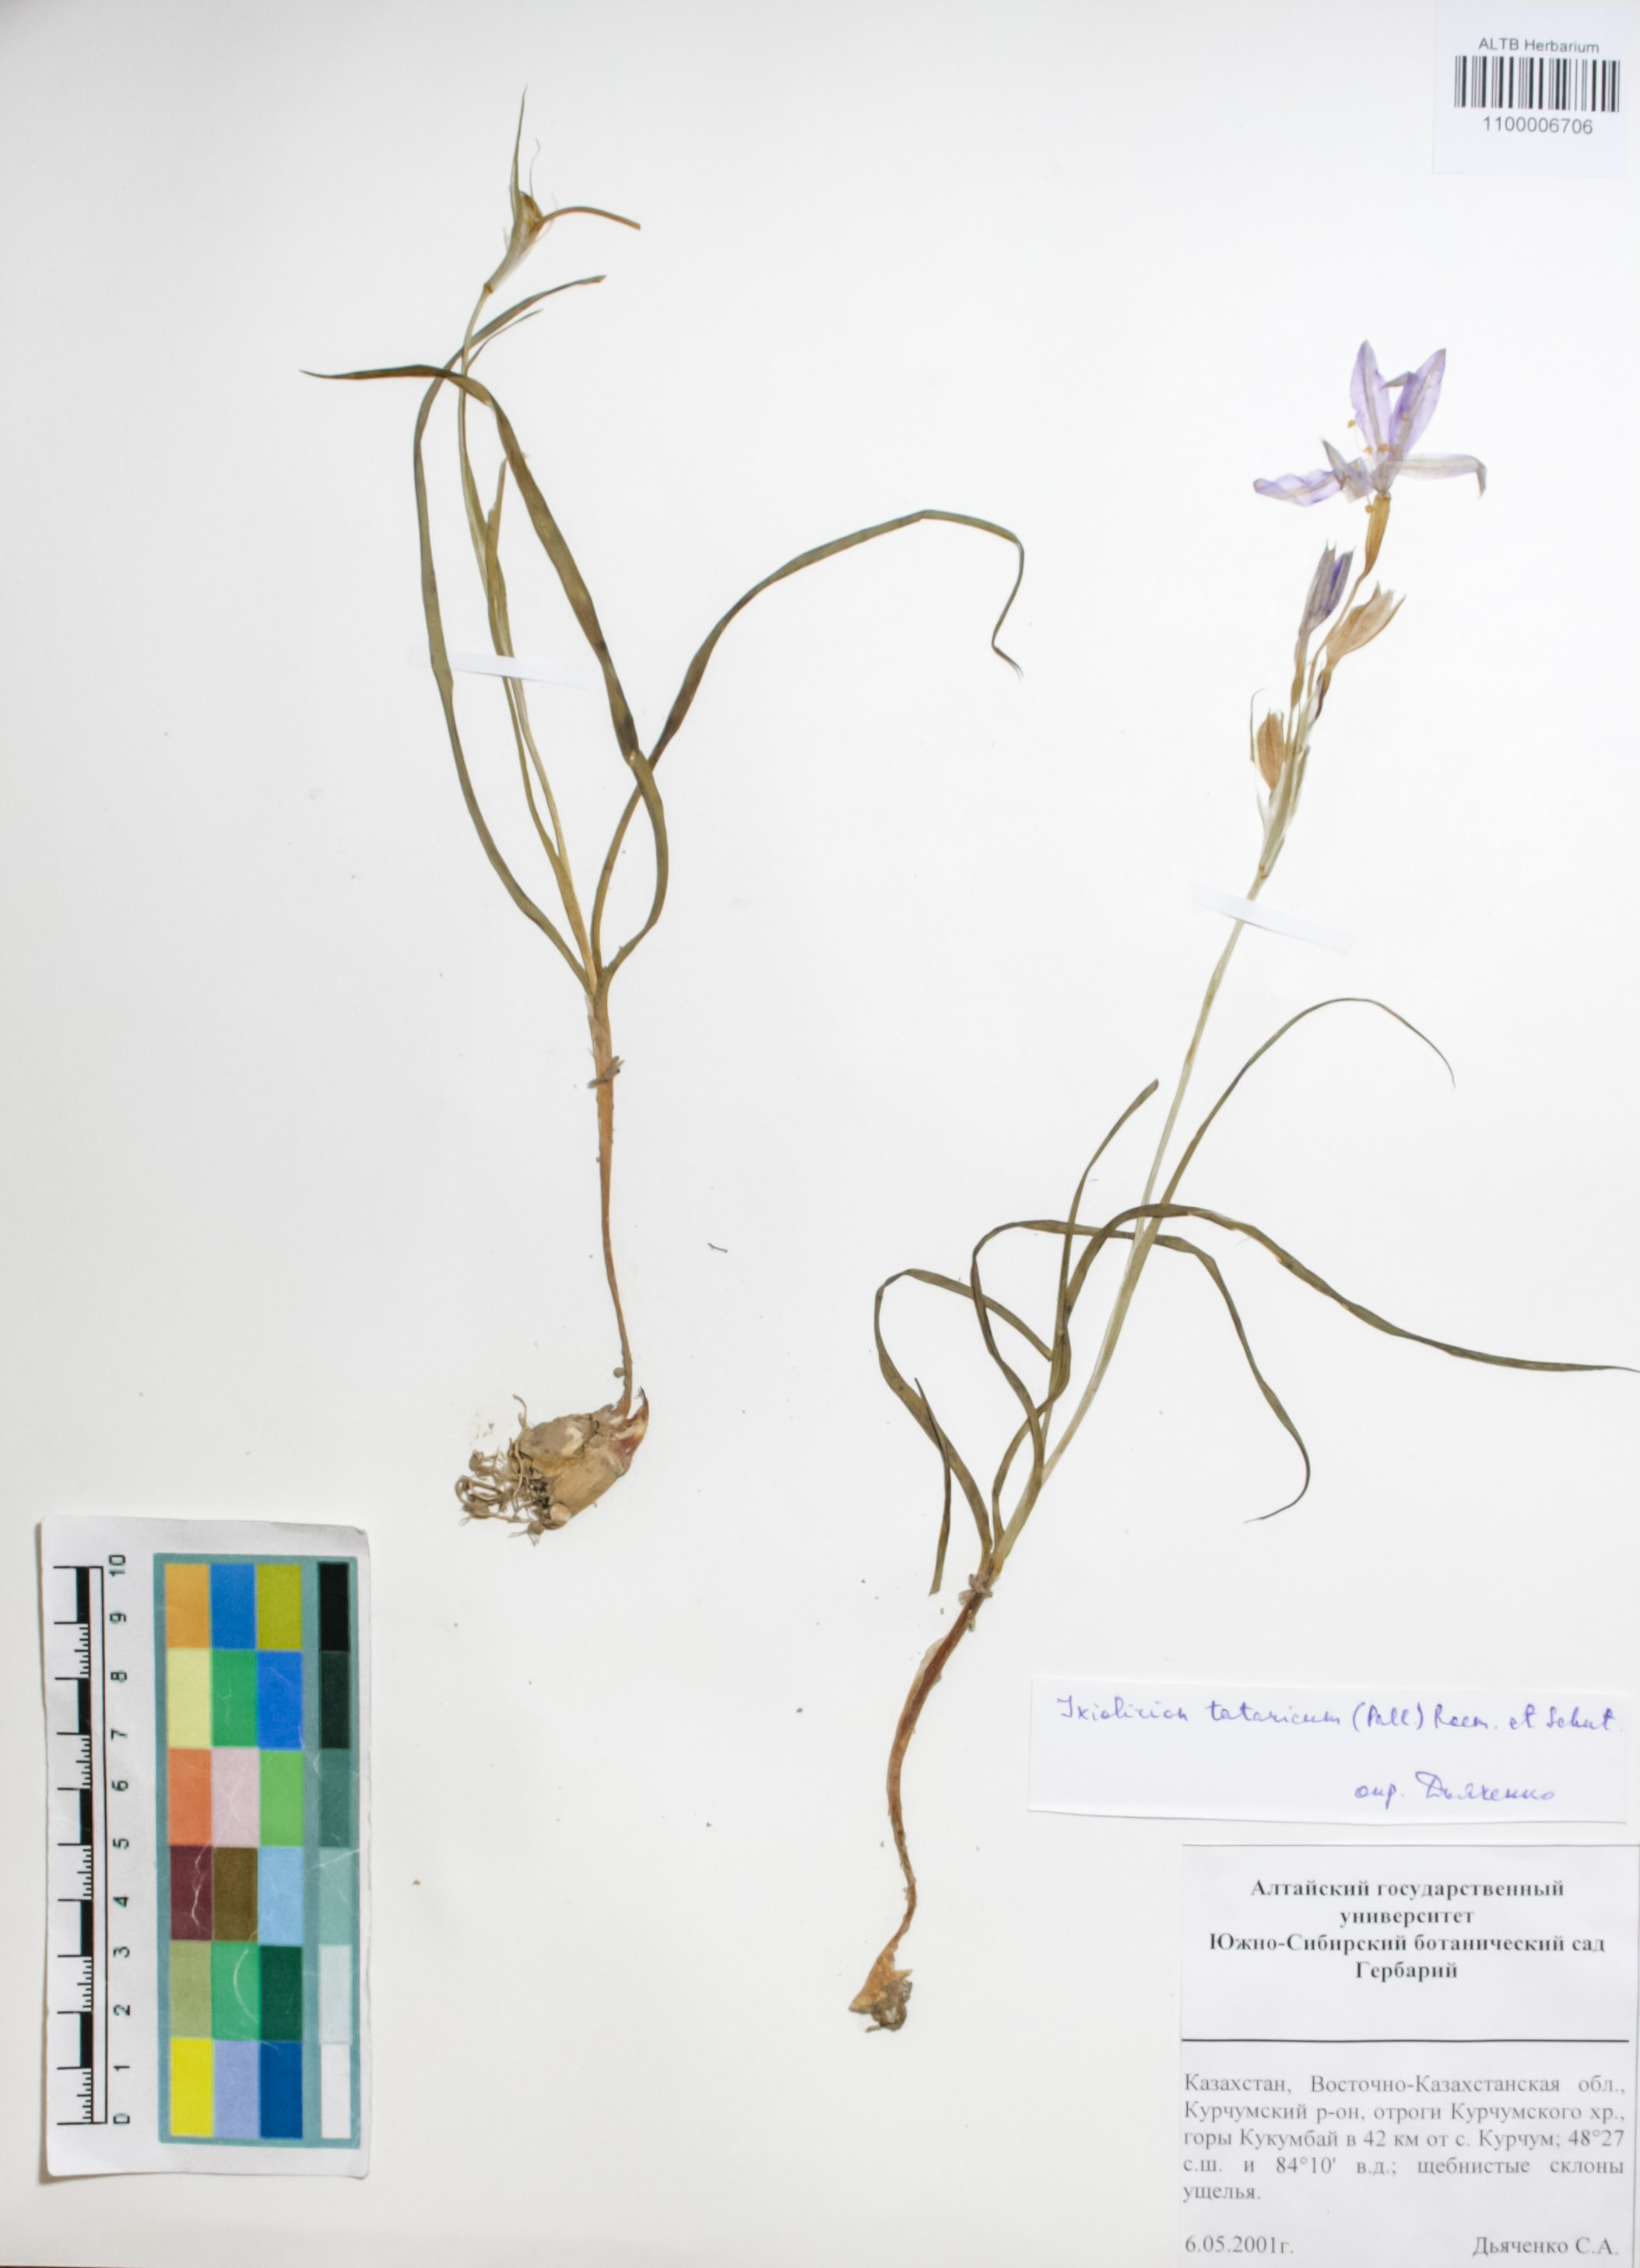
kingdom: Plantae
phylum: Tracheophyta
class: Liliopsida
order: Asparagales
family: Ixioliriaceae
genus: Ixiolirion
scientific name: Ixiolirion tataricum
